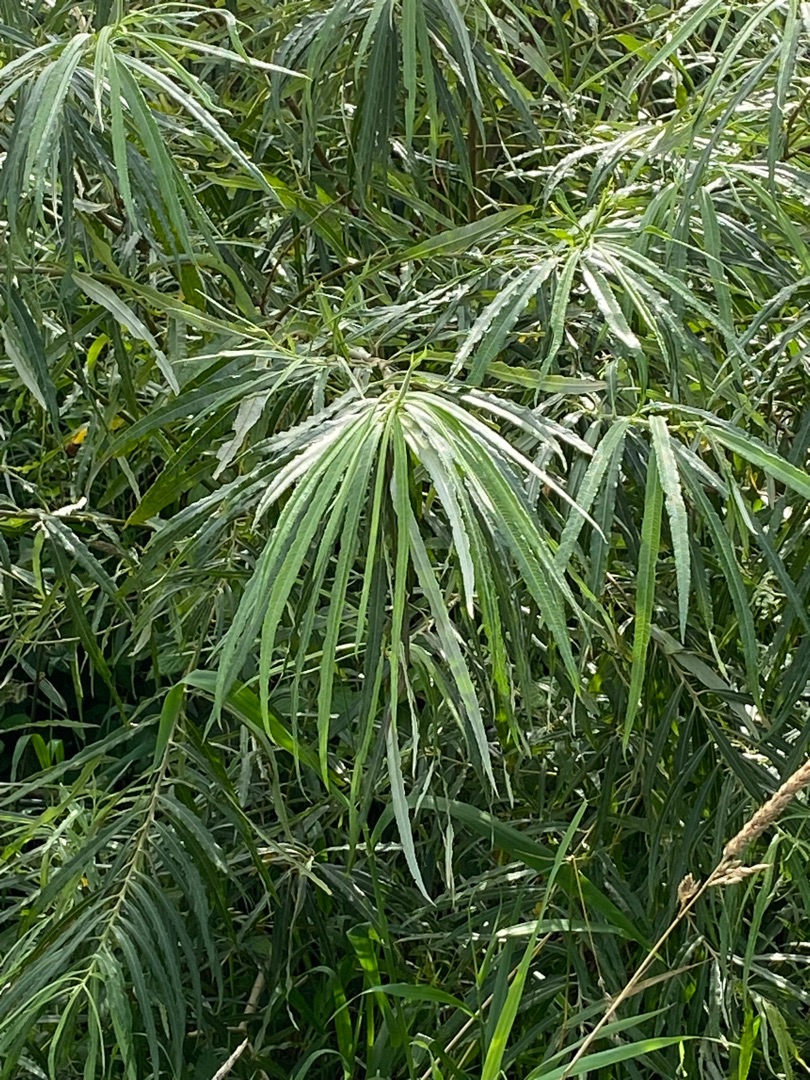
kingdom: Plantae
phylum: Tracheophyta
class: Magnoliopsida
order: Malpighiales
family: Salicaceae
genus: Salix
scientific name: Salix viminalis
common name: Bånd-pil
